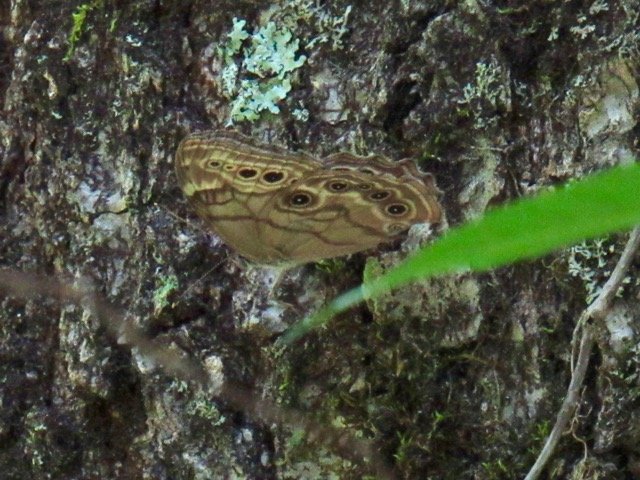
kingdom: Animalia
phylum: Arthropoda
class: Insecta
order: Lepidoptera
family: Nymphalidae
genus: Lethe
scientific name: Lethe anthedon
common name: Northern Pearly-Eye
